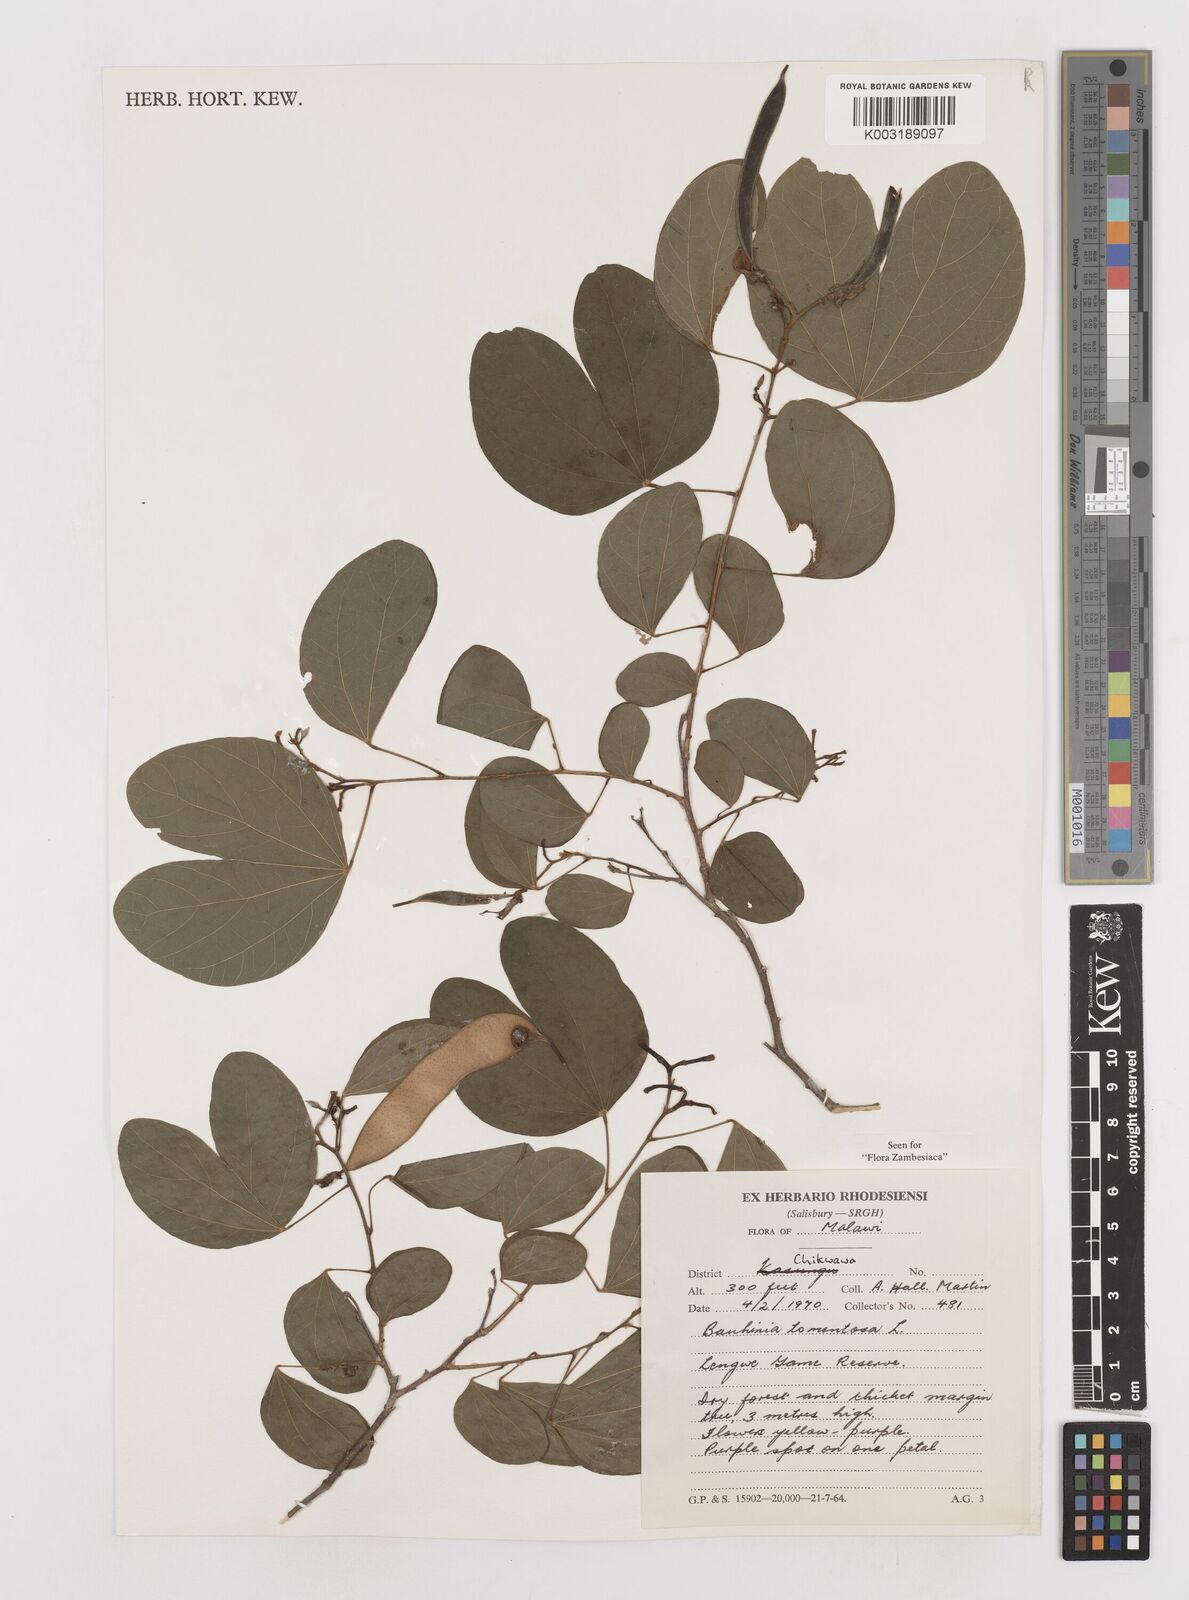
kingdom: Plantae
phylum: Tracheophyta
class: Magnoliopsida
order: Fabales
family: Fabaceae
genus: Bauhinia
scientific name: Bauhinia tomentosa
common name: Bell bauhinia
